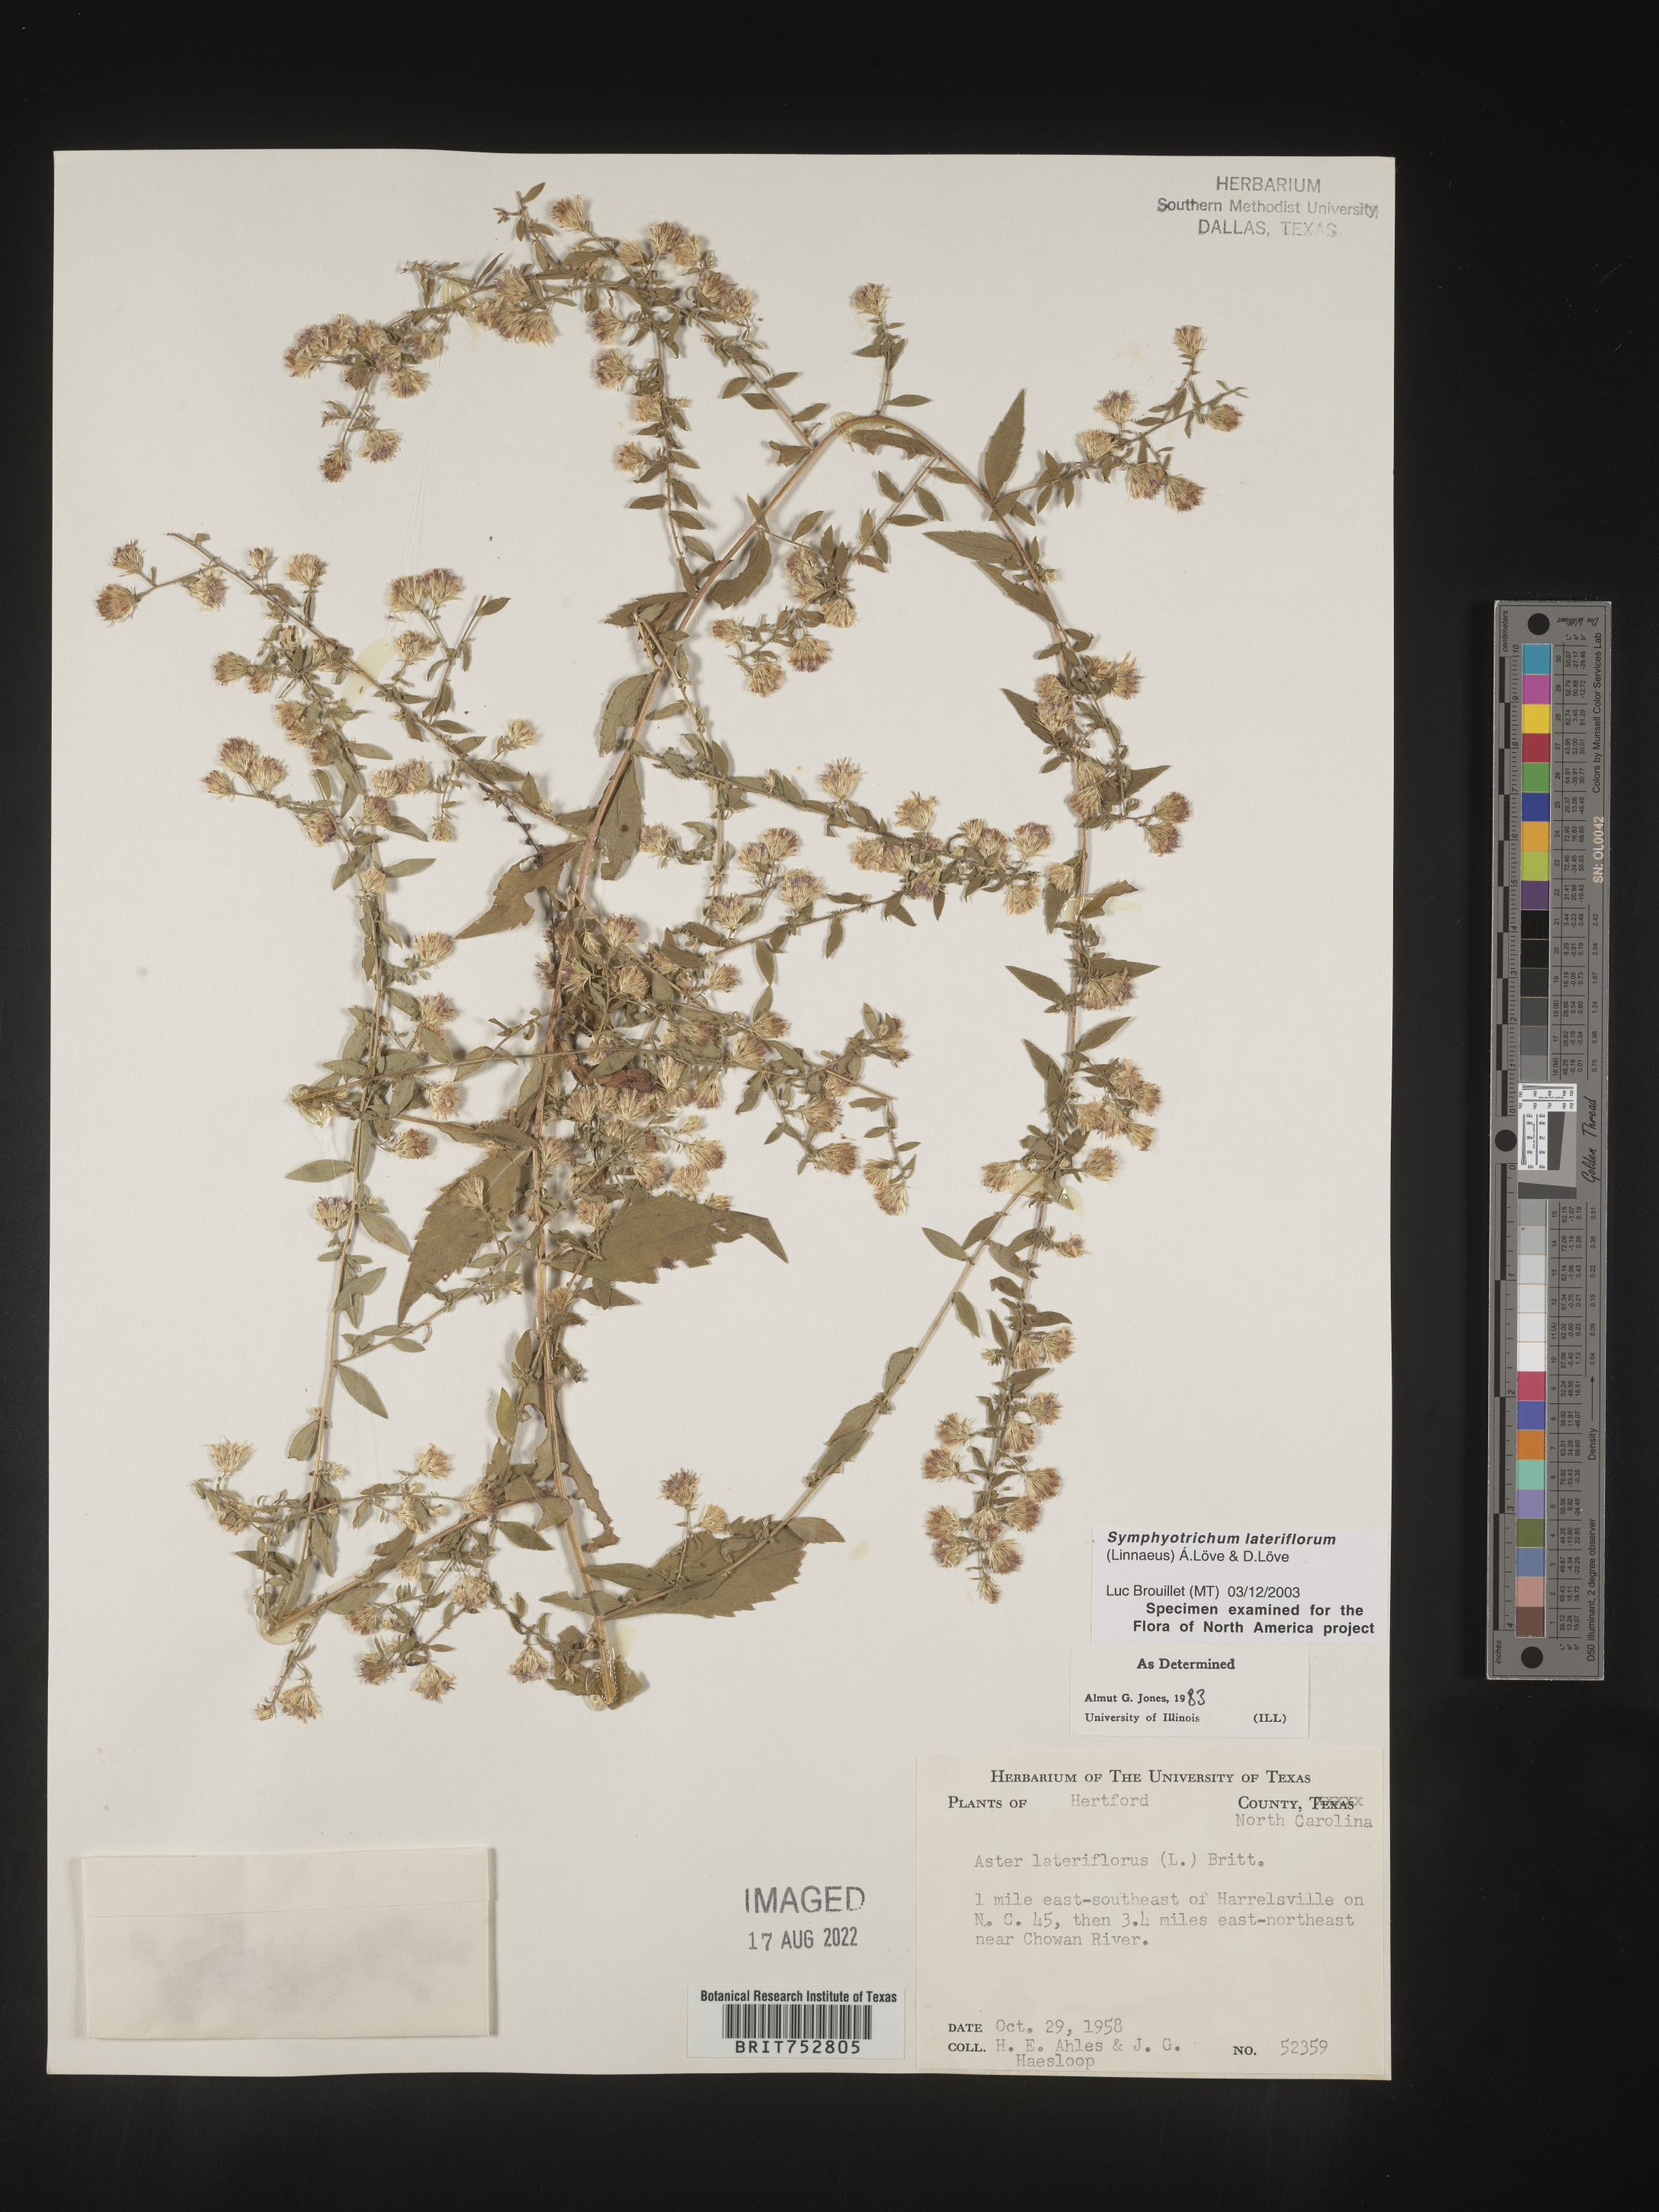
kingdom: Plantae
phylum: Tracheophyta
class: Magnoliopsida
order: Asterales
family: Asteraceae
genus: Symphyotrichum
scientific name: Symphyotrichum lateriflorum
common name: Calico aster
